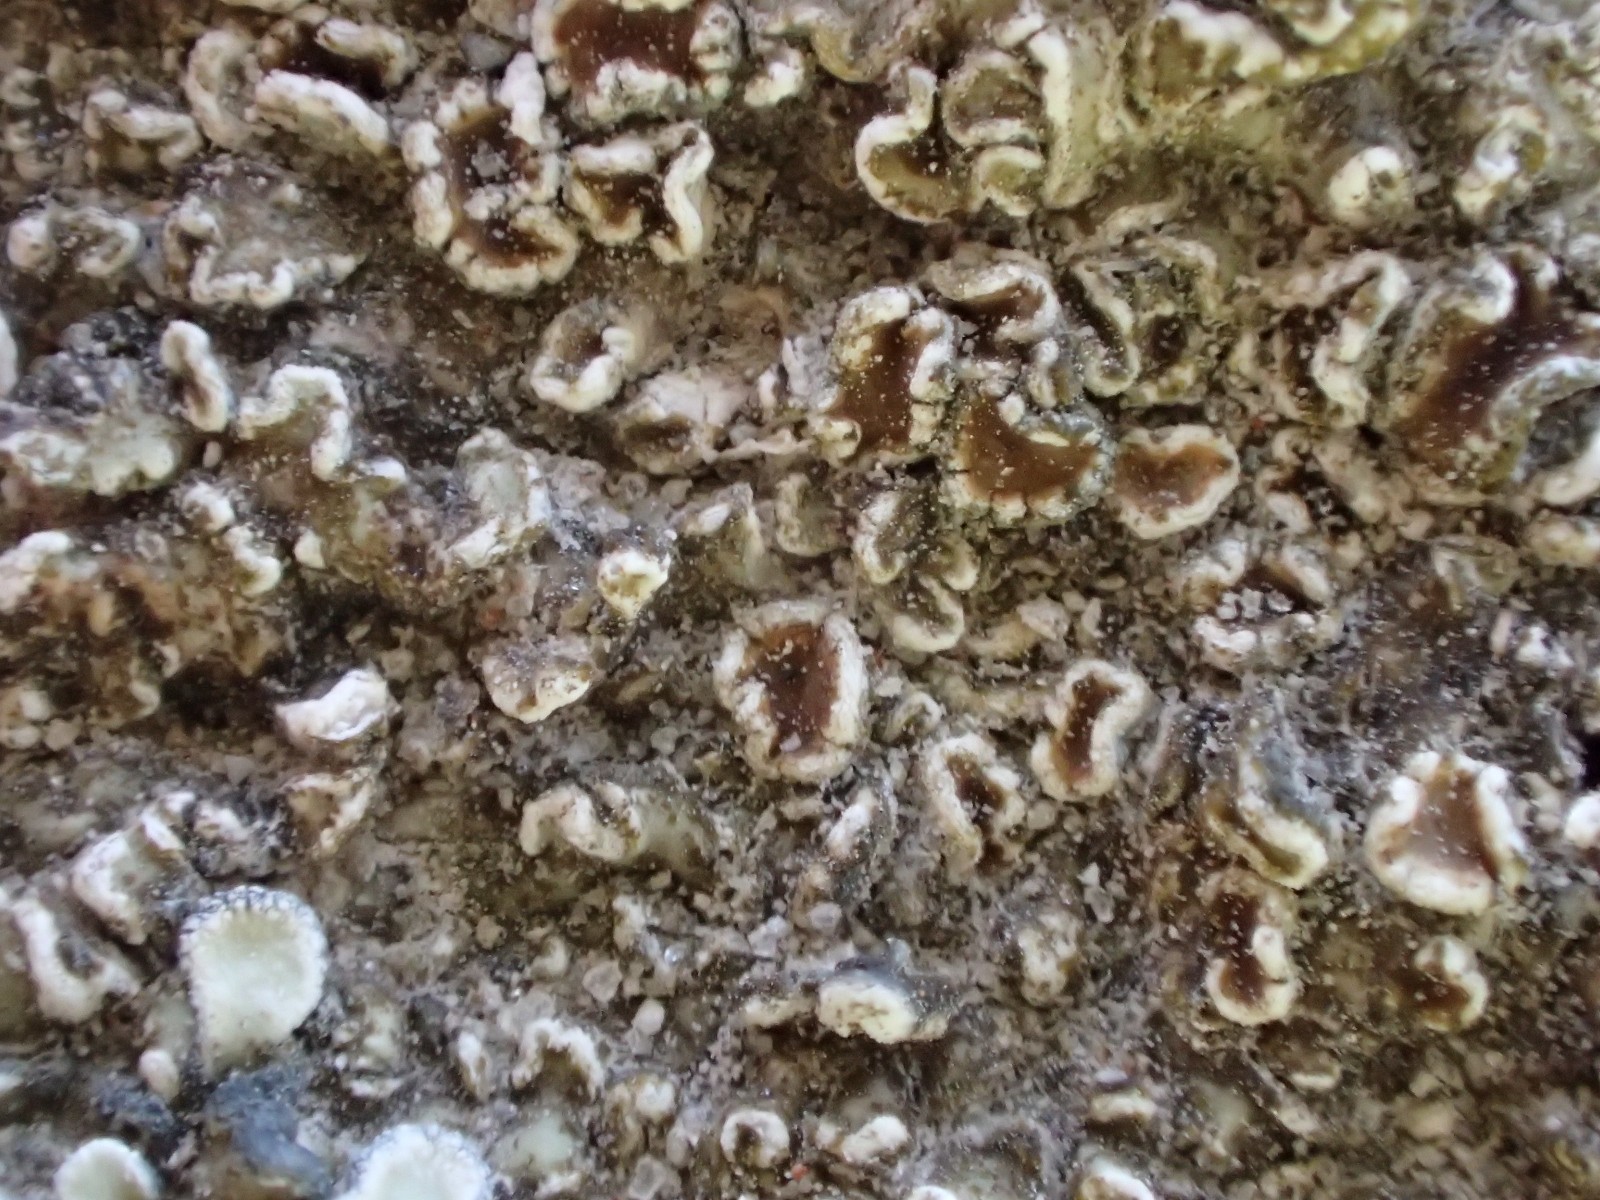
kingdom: Fungi
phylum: Ascomycota
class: Lecanoromycetes
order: Lecanorales
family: Lecanoraceae
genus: Protoparmeliopsis
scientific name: Protoparmeliopsis muralis
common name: randfliget kantskivelav
